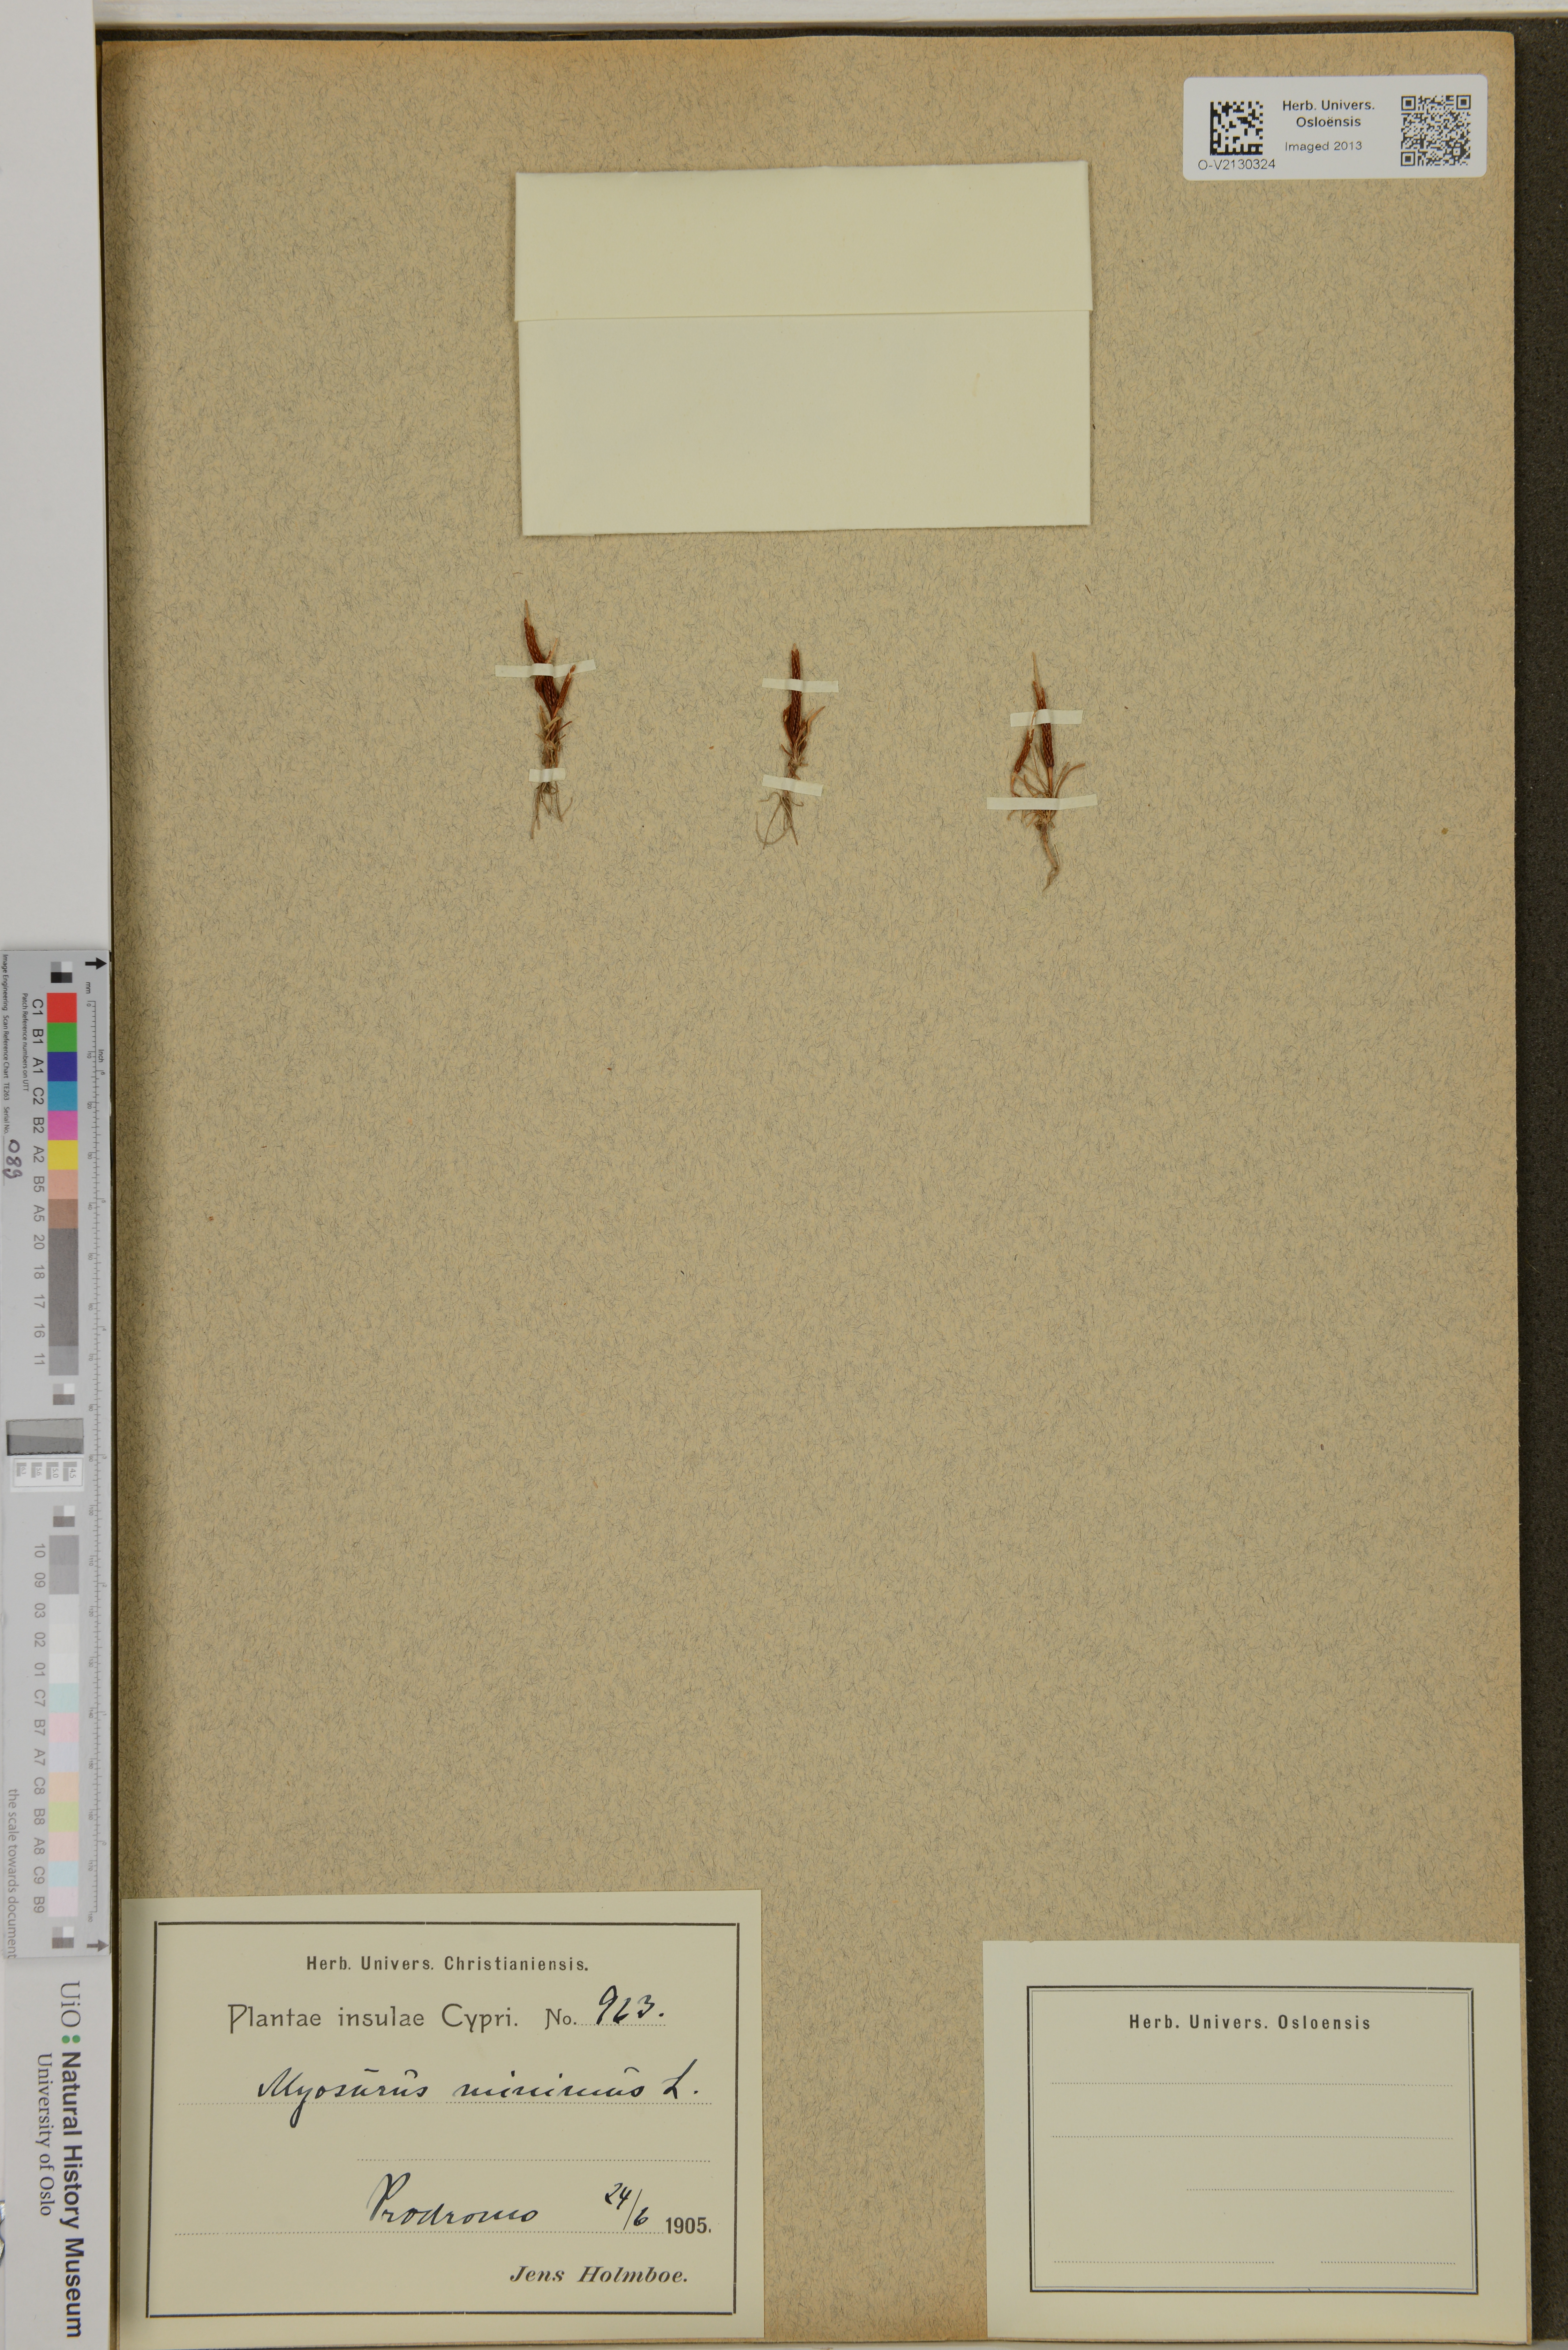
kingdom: Plantae
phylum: Tracheophyta
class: Magnoliopsida
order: Ranunculales
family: Ranunculaceae
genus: Myosurus
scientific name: Myosurus minimus
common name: Mousetail
